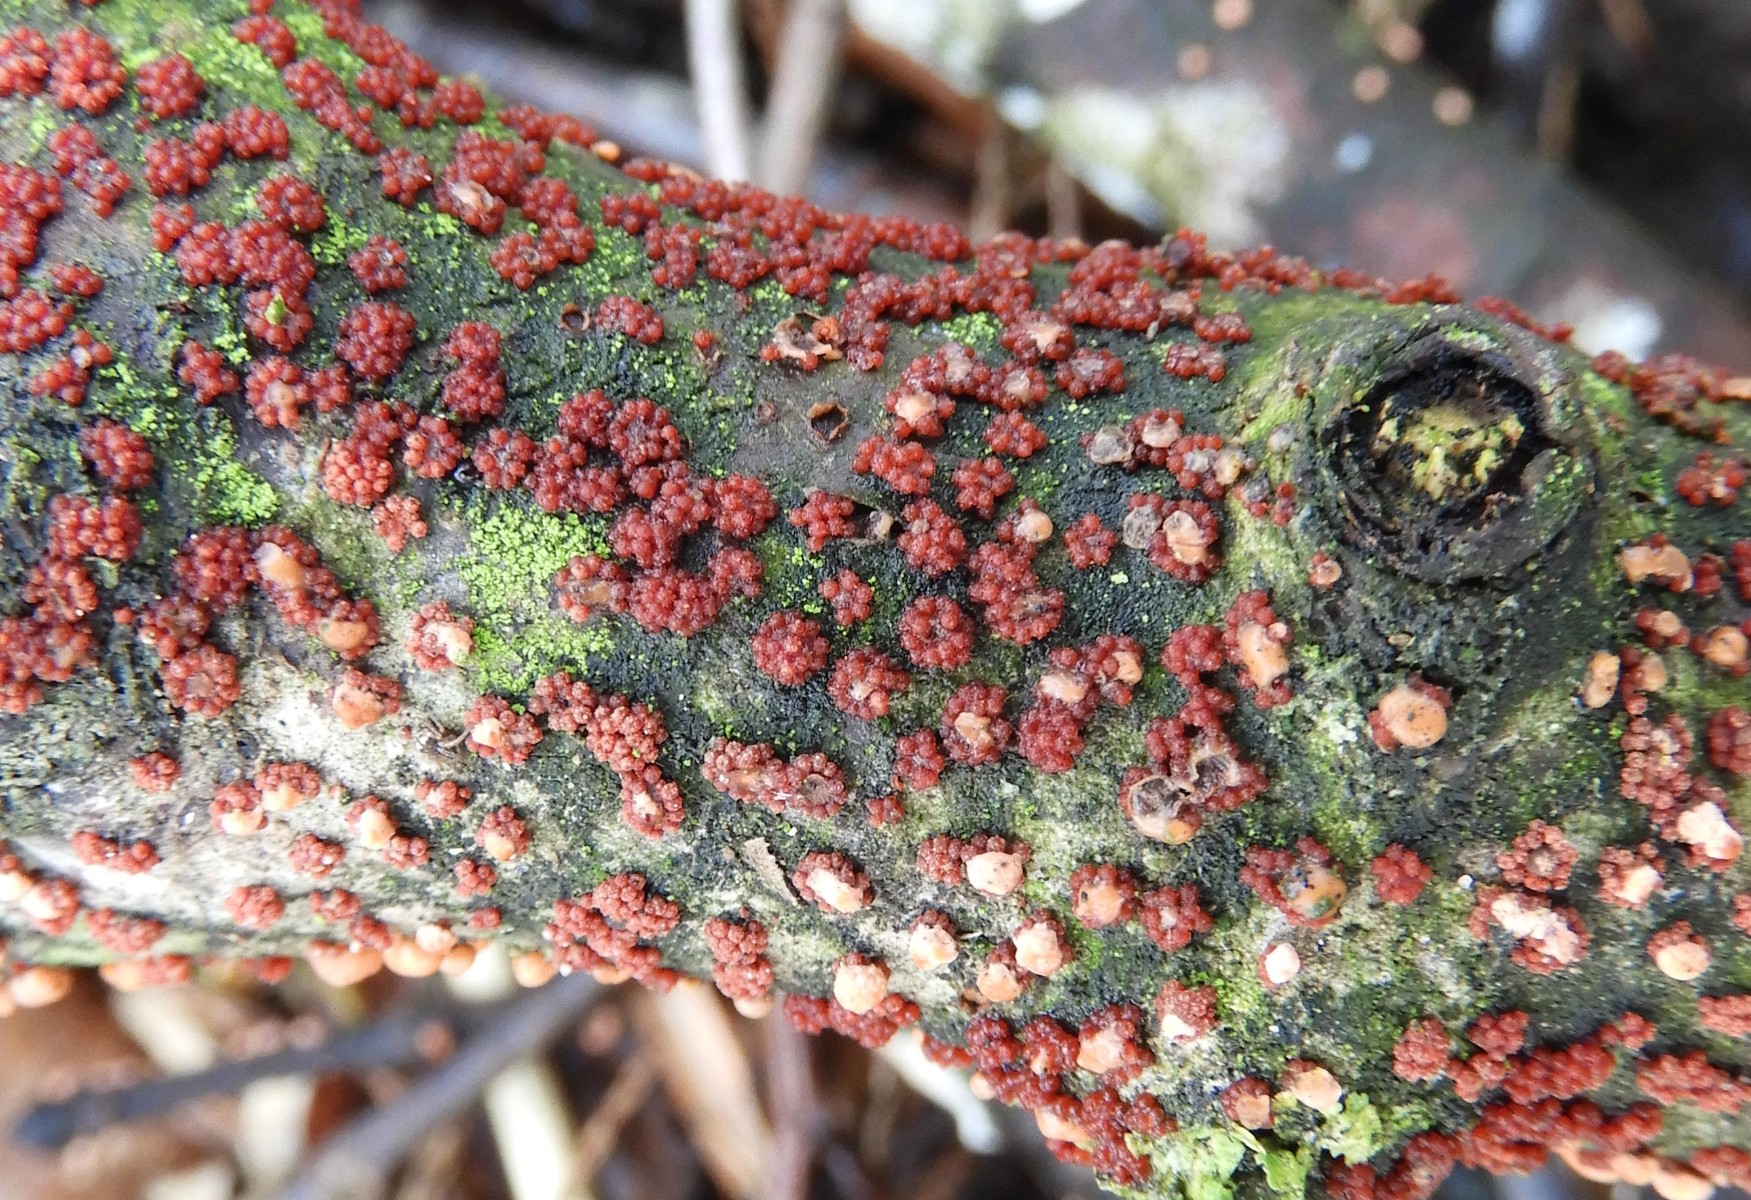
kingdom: Fungi
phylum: Ascomycota
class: Sordariomycetes
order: Hypocreales
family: Nectriaceae
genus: Nectria
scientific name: Nectria cinnabarina
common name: almindelig cinnobersvamp
